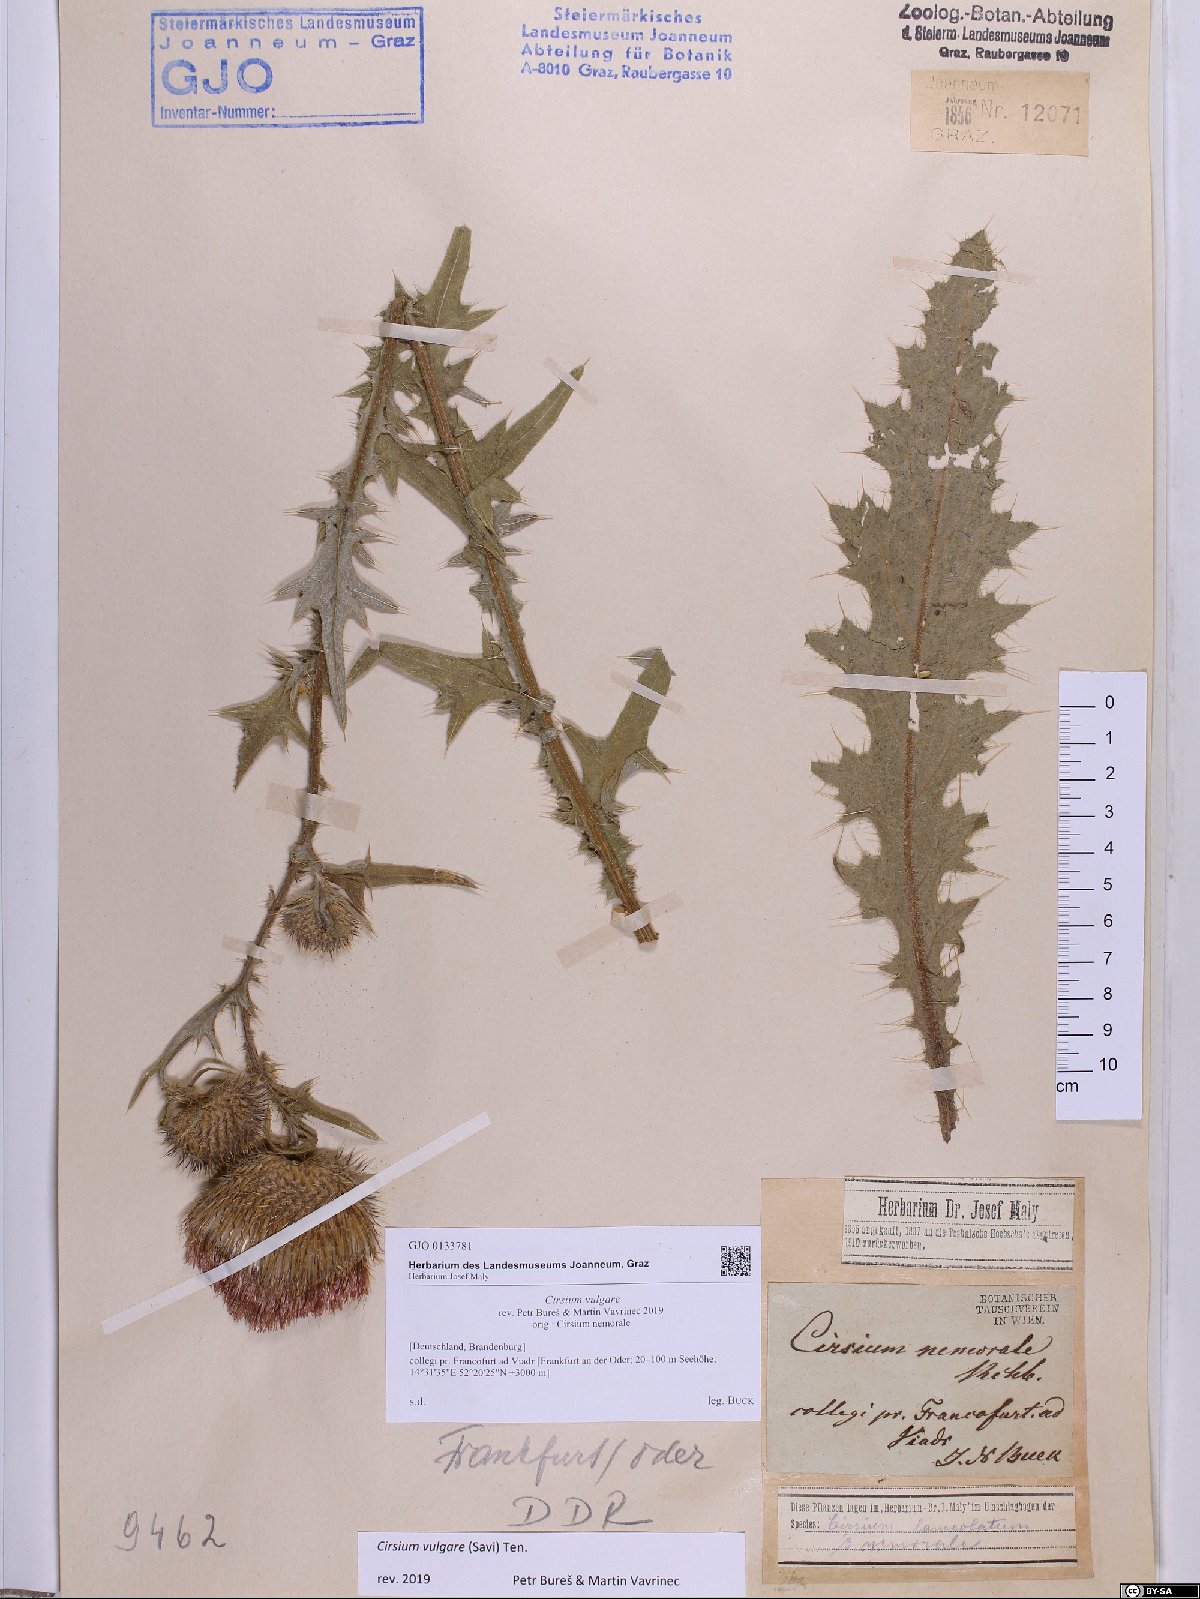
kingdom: Plantae
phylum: Tracheophyta
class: Magnoliopsida
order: Asterales
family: Asteraceae
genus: Cirsium
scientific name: Cirsium vulgare
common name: Bull thistle
